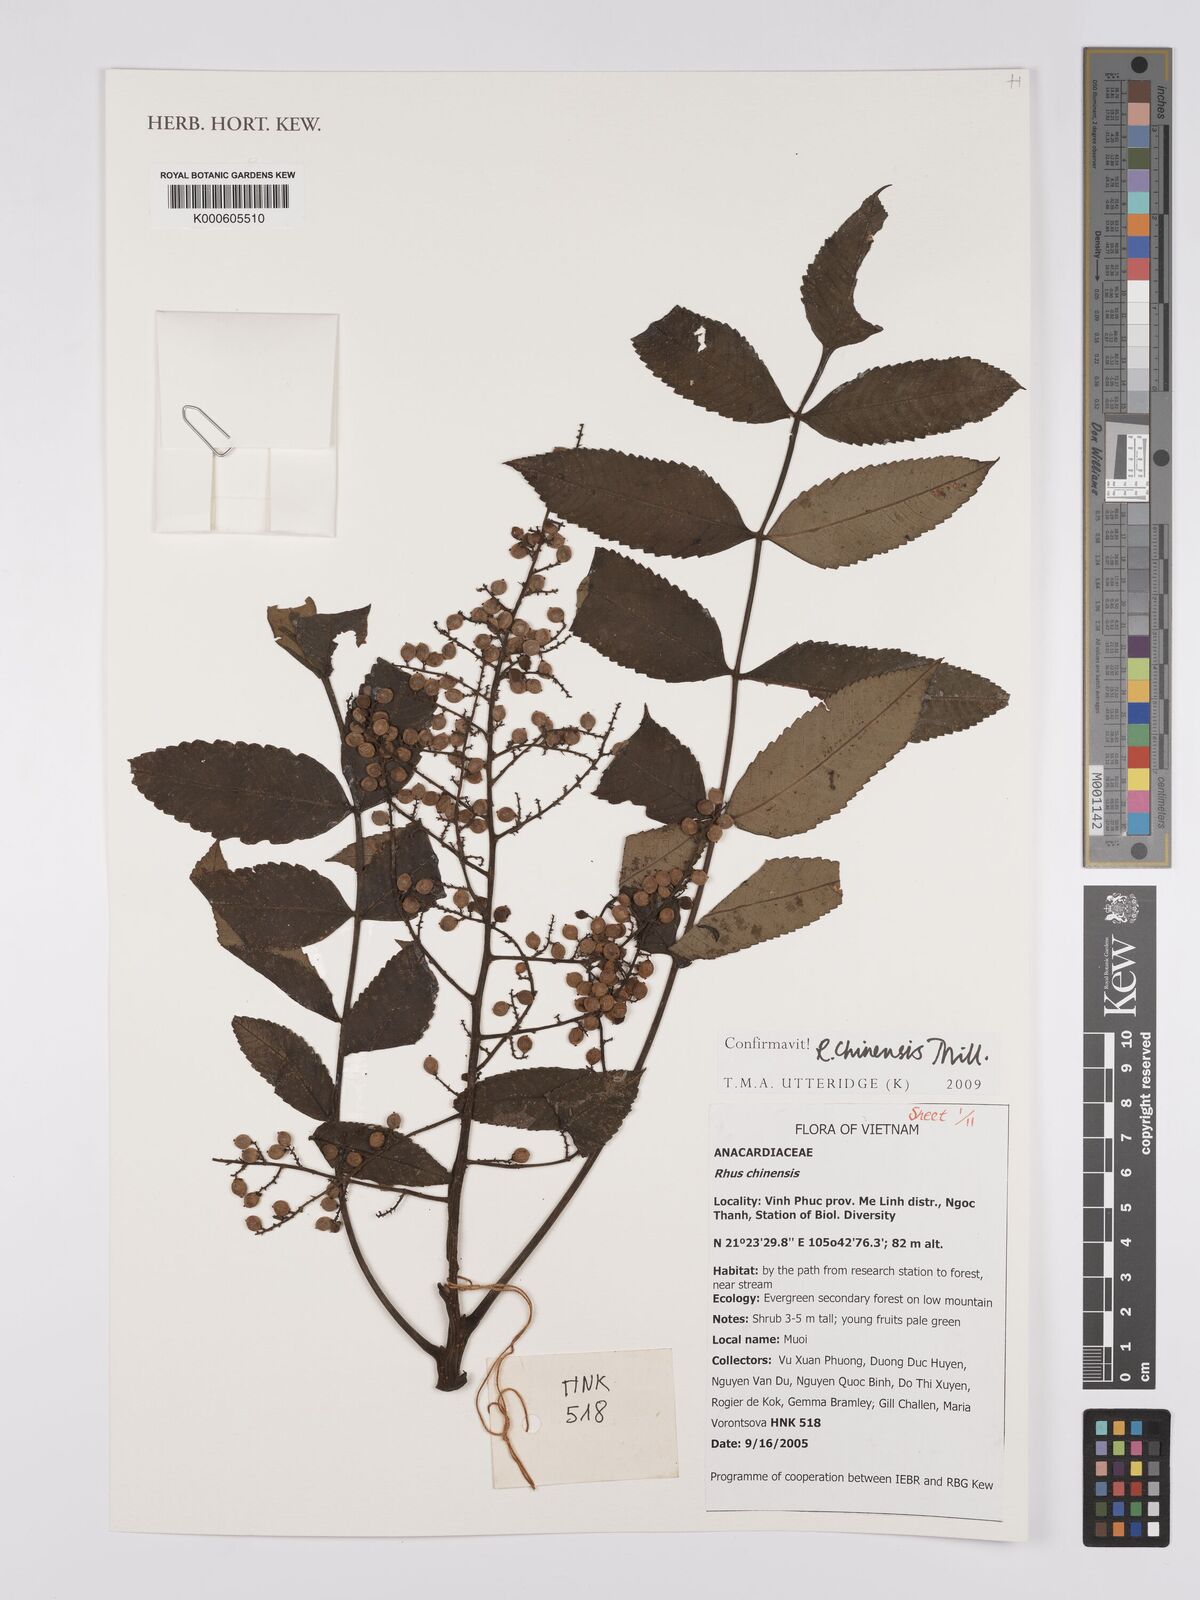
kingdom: Plantae
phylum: Tracheophyta
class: Magnoliopsida
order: Sapindales
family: Anacardiaceae
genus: Rhus
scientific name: Rhus chinensis
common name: Chinese gall
